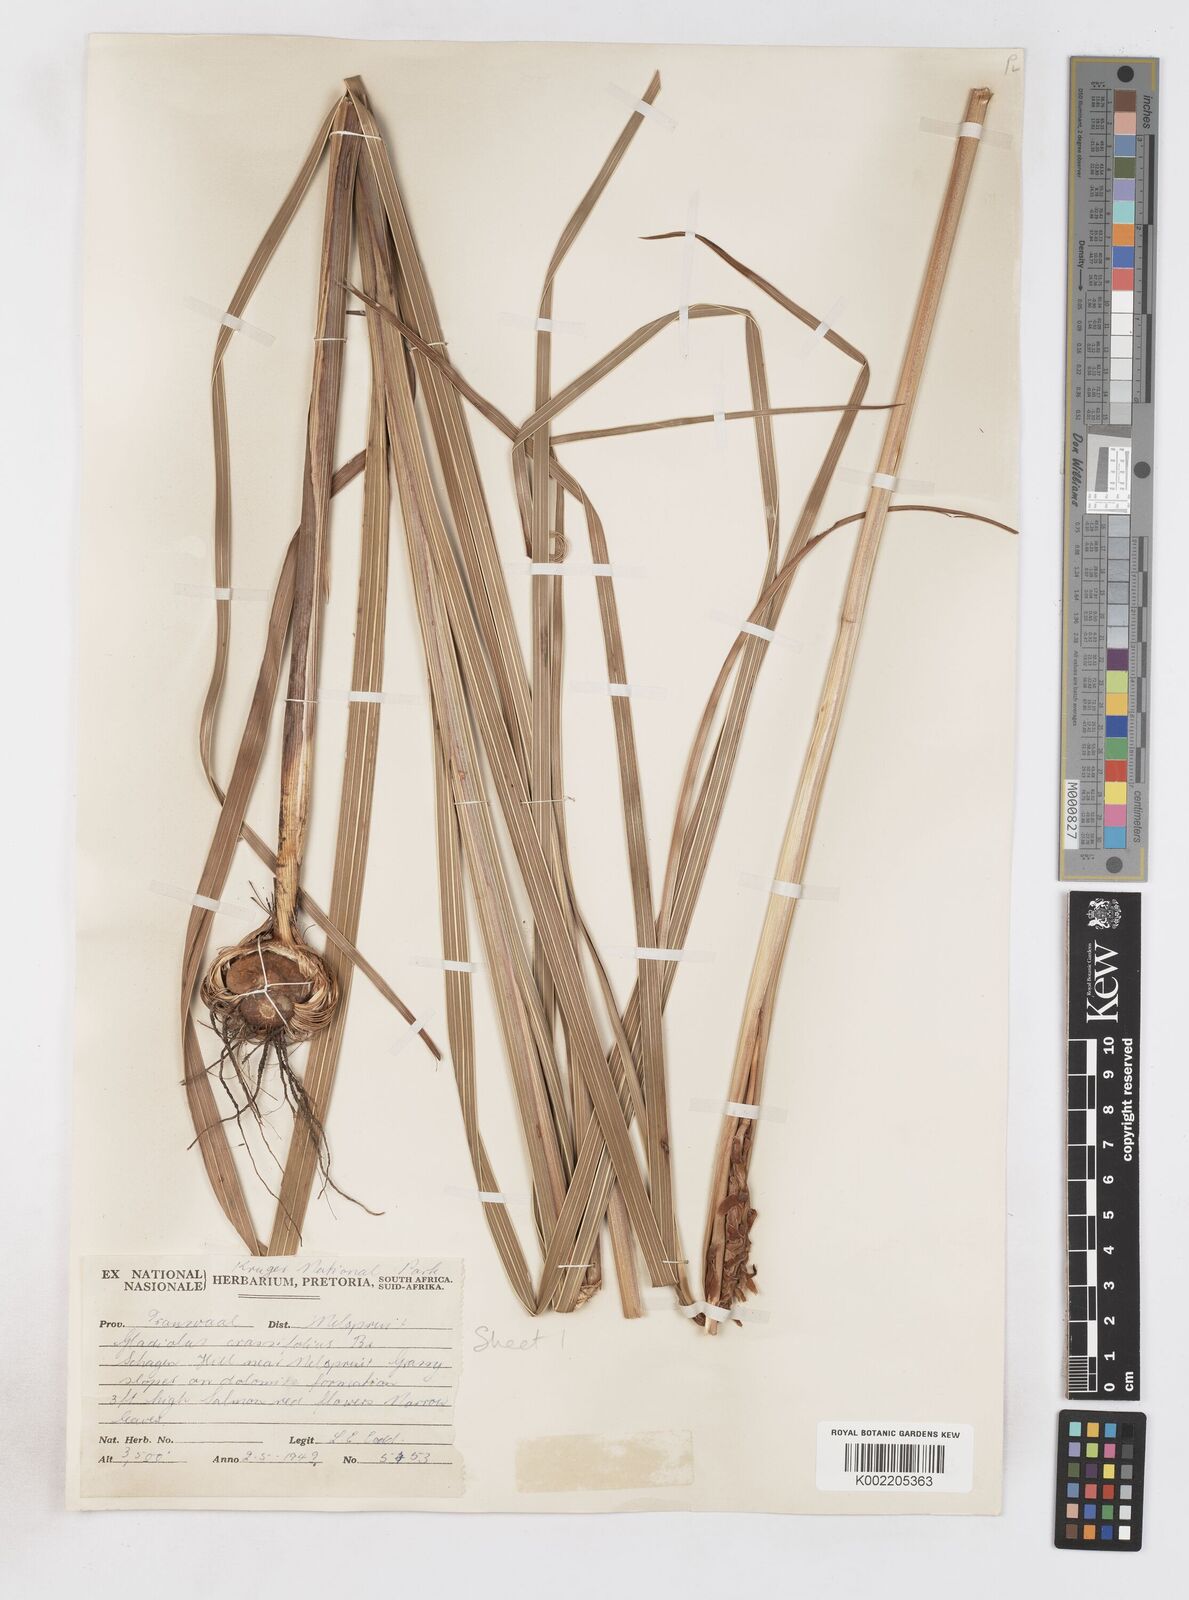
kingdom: Plantae
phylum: Tracheophyta
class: Liliopsida
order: Asparagales
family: Iridaceae
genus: Gladiolus
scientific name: Gladiolus crassifolius
